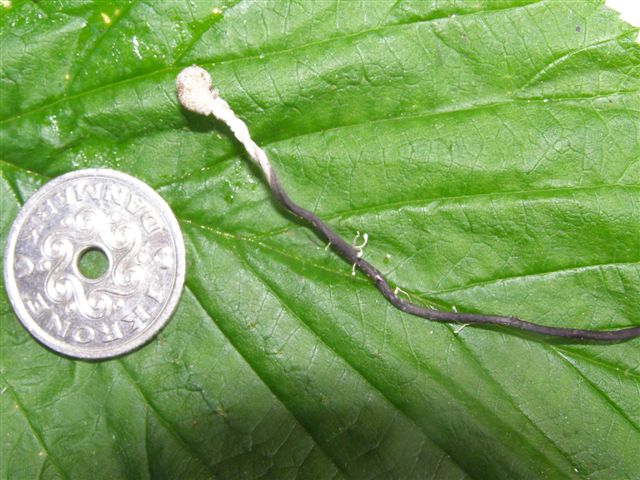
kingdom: Fungi
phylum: Ascomycota
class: Sordariomycetes
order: Hypocreales
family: Ophiocordycipitaceae
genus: Ophiocordyceps
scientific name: Ophiocordyceps entomorrhiza
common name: grå snyltekølle
